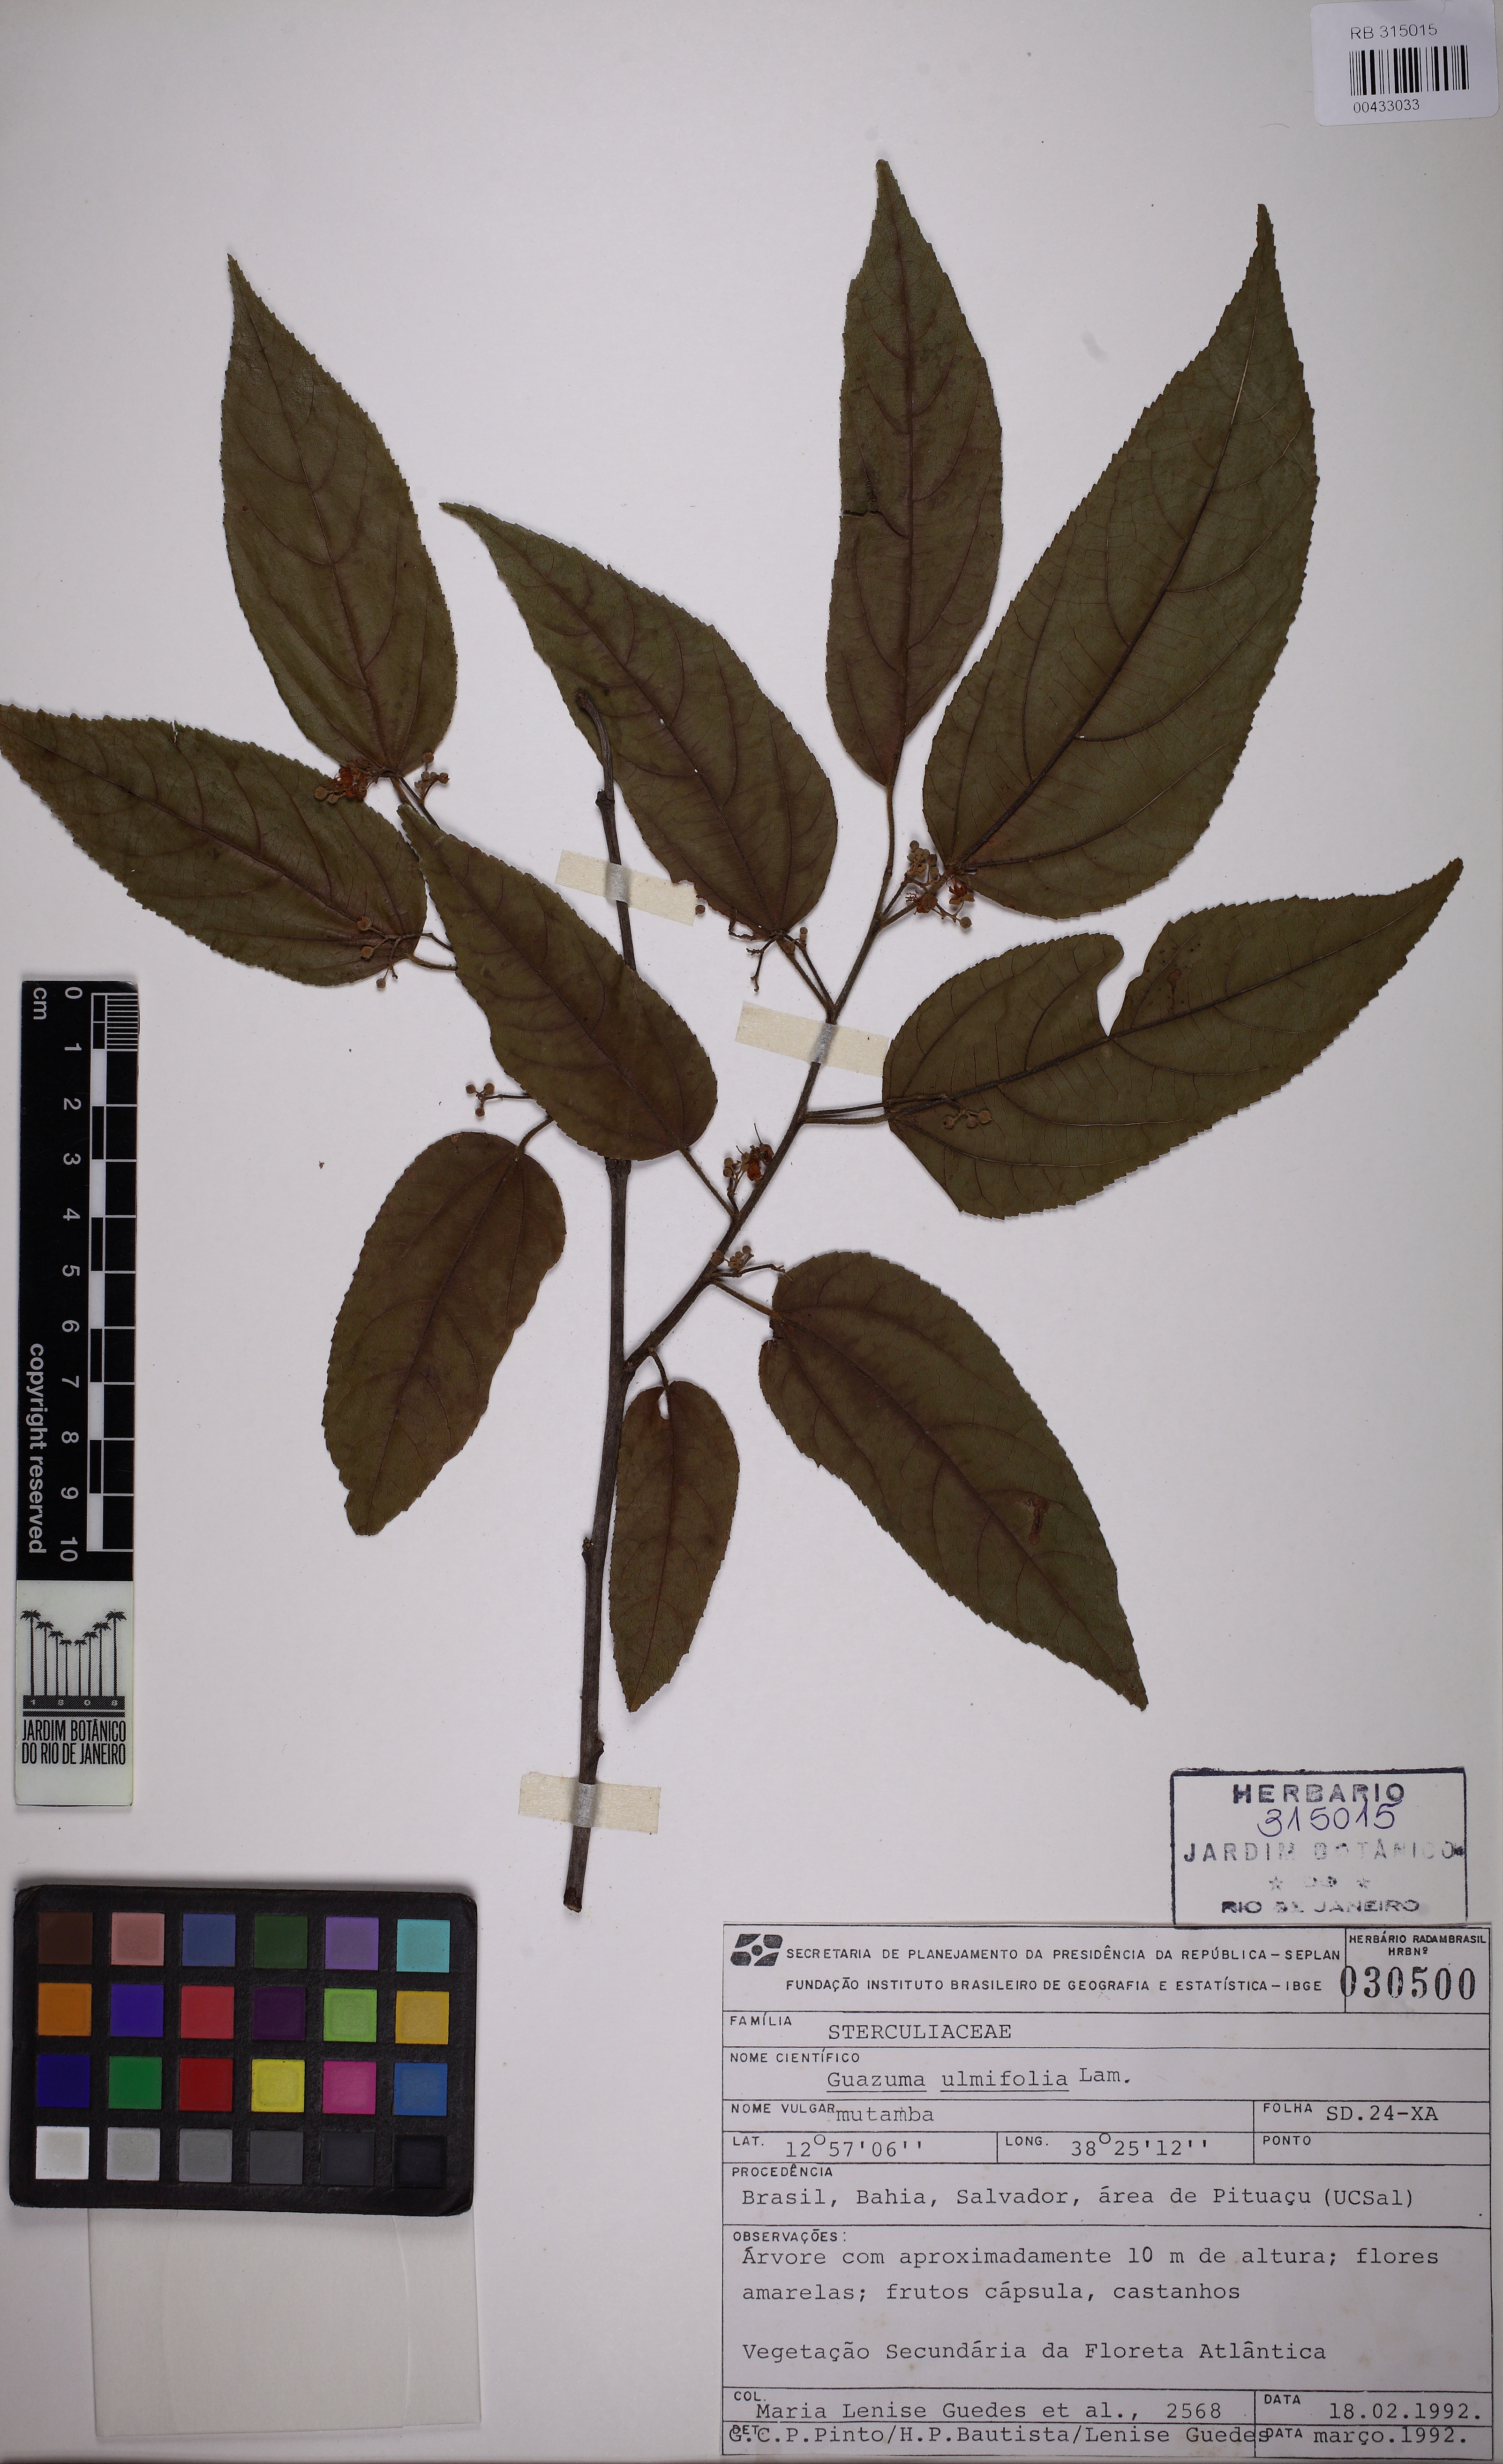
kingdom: Plantae
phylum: Tracheophyta
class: Magnoliopsida
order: Malvales
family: Malvaceae
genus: Guazuma
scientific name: Guazuma ulmifolia
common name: Bastard-cedar
